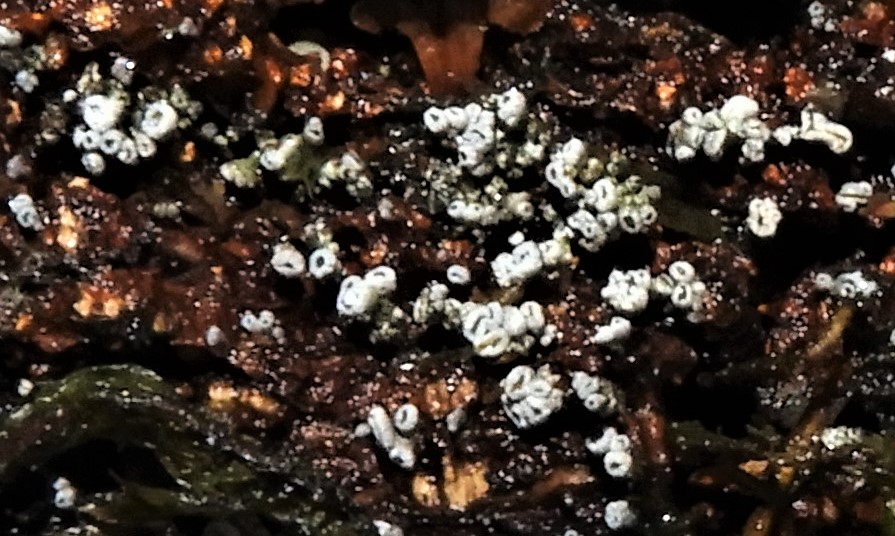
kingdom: Fungi
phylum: Ascomycota
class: Leotiomycetes
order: Helotiales
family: Lachnaceae
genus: Proliferodiscus
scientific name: Proliferodiscus pulveraceus
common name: askegrå frynseskive
